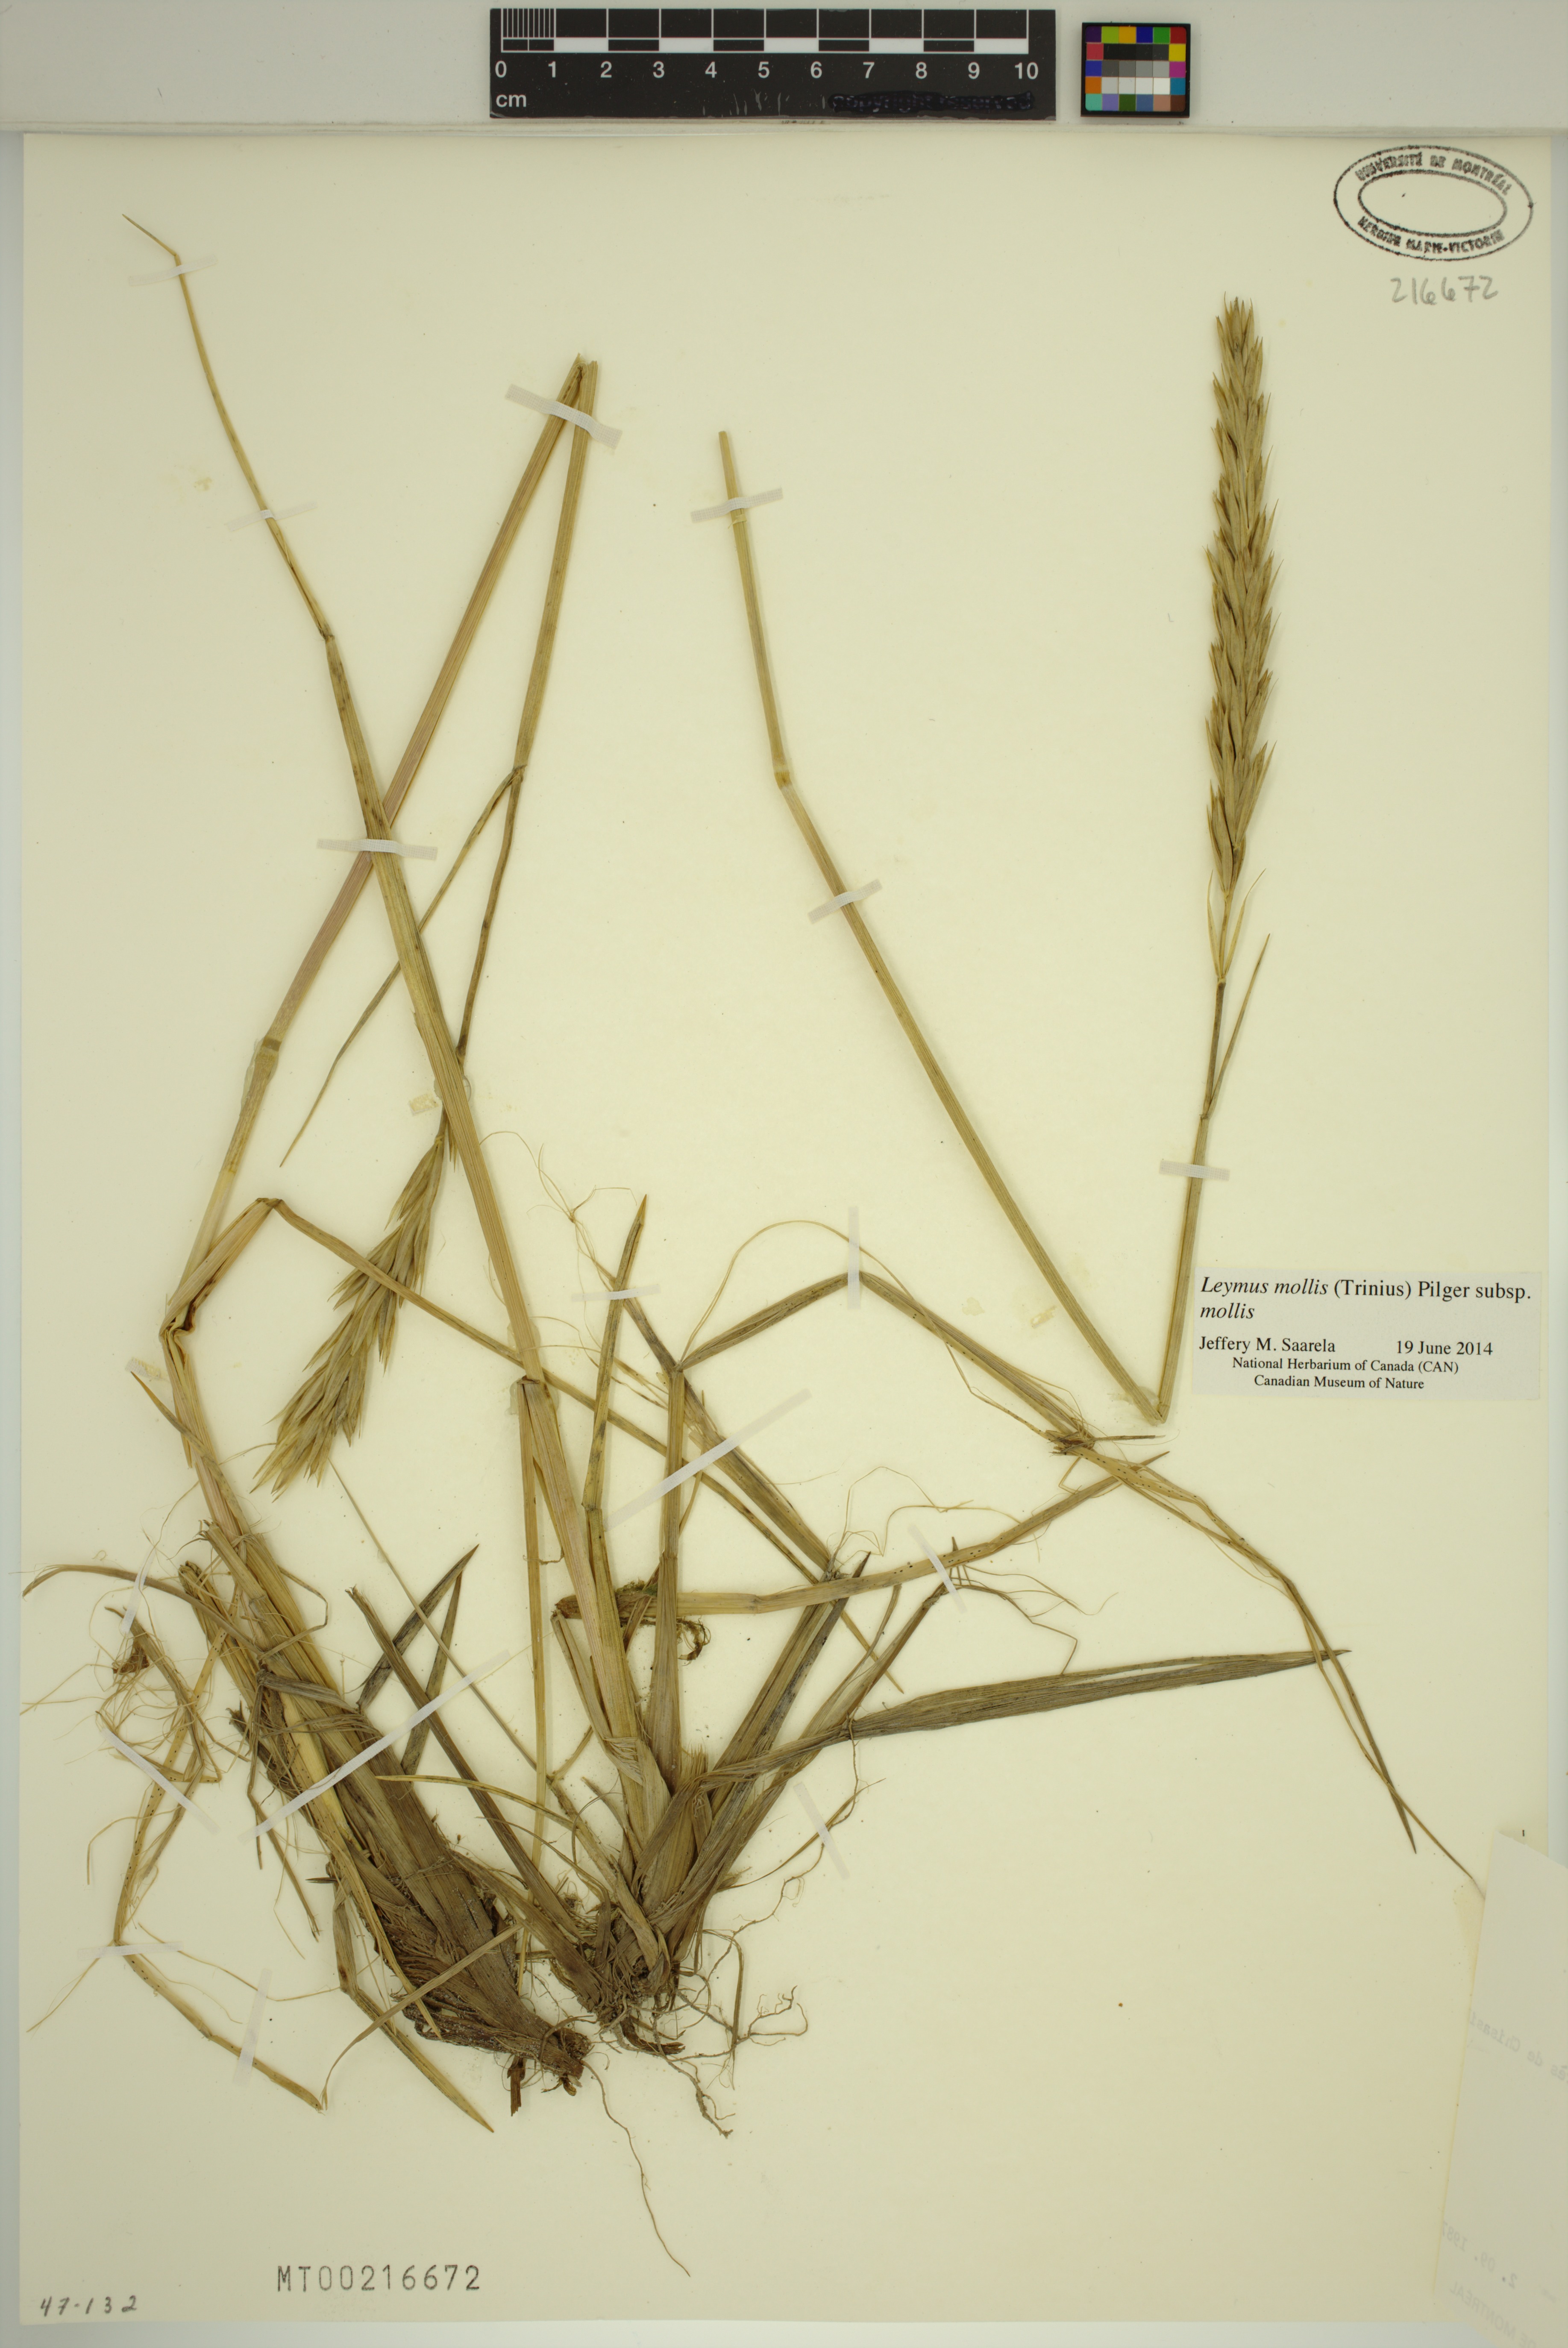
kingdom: Plantae
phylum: Tracheophyta
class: Liliopsida
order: Poales
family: Poaceae
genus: Leymus
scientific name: Leymus mollis
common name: American dune grass
